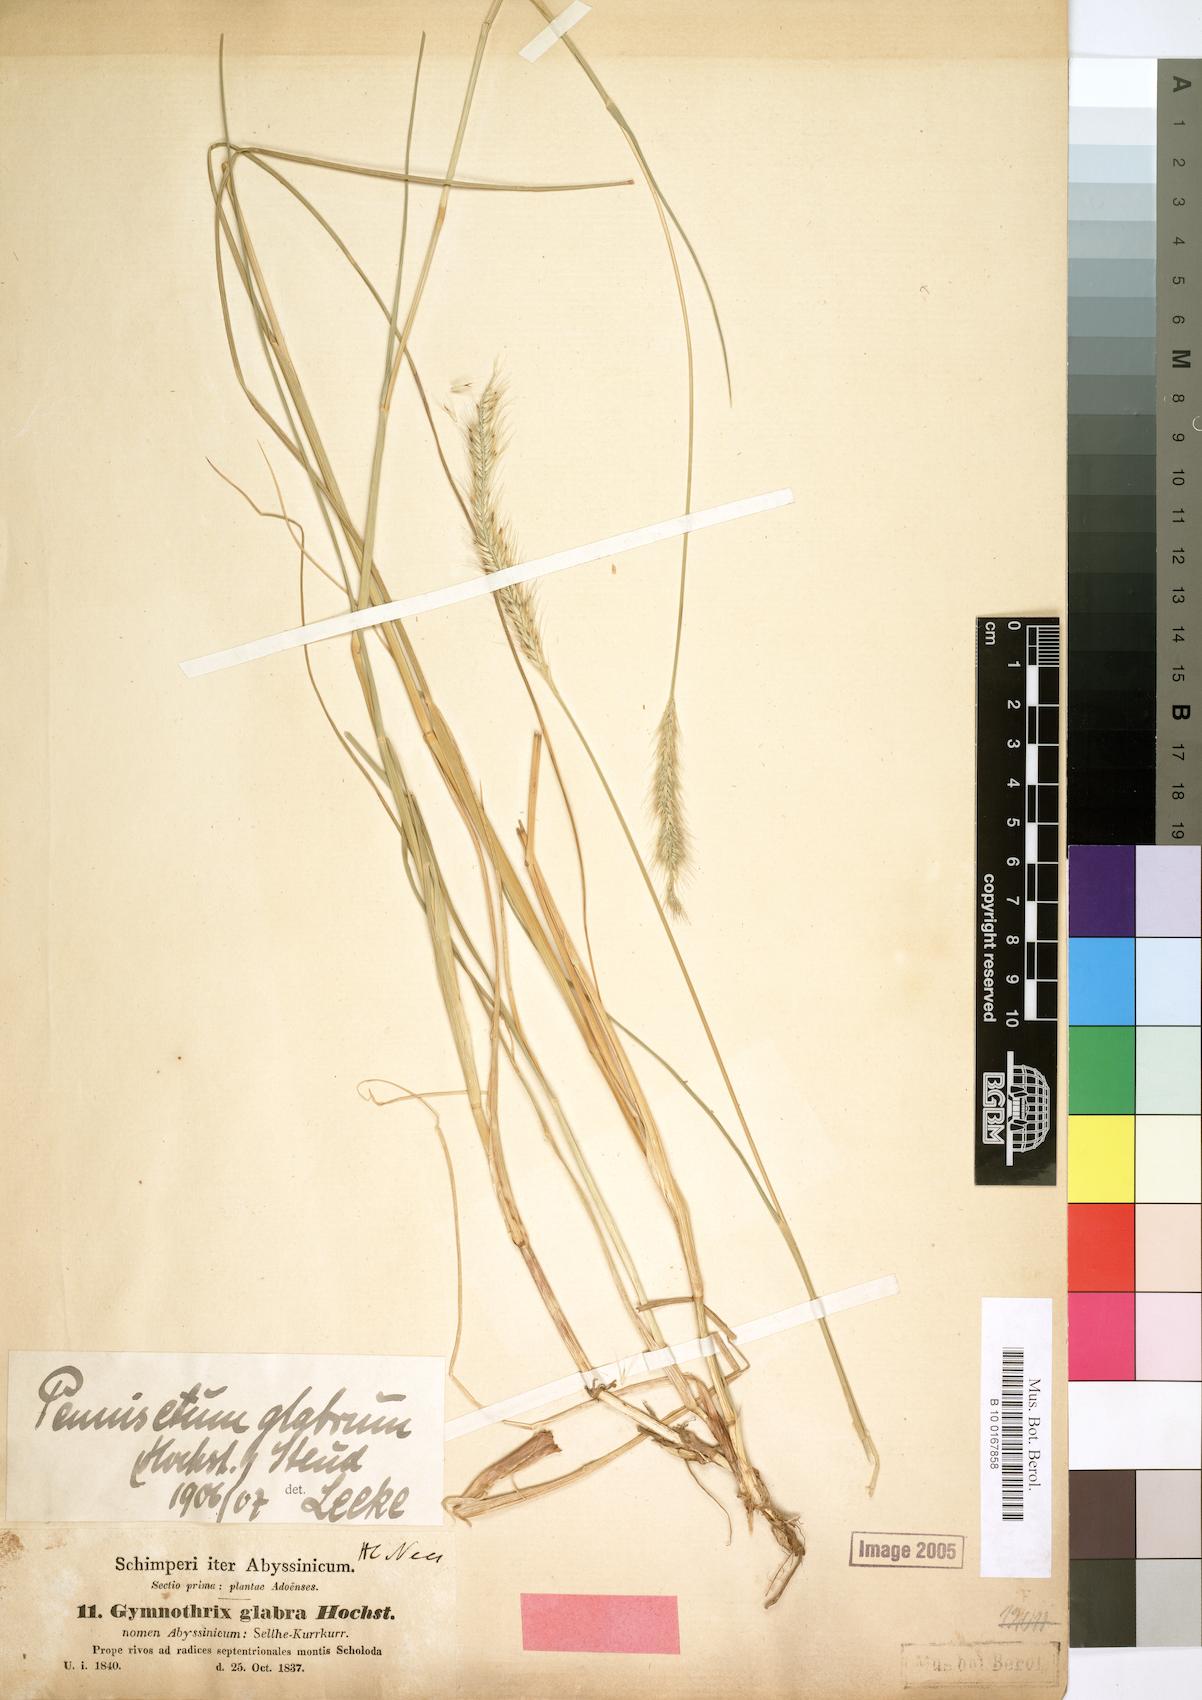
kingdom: Plantae
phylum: Tracheophyta
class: Liliopsida
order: Poales
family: Poaceae
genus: Cenchrus
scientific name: Cenchrus geniculatus
